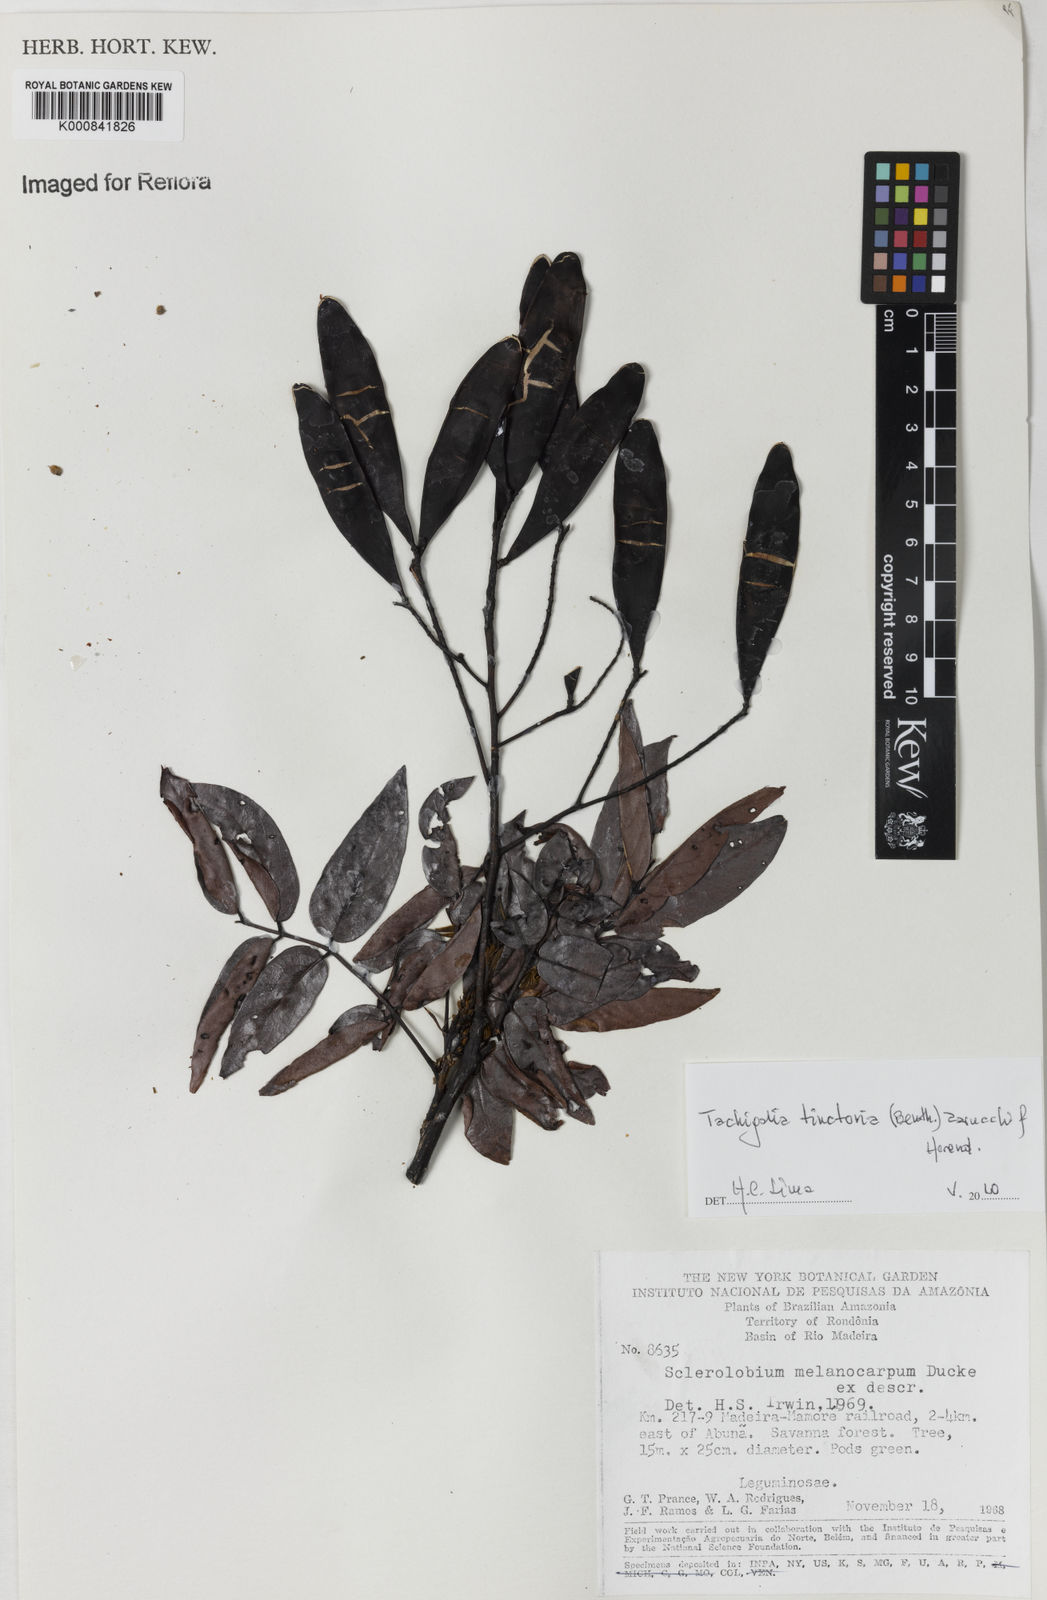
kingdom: Plantae
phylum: Tracheophyta
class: Magnoliopsida
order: Fabales
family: Fabaceae
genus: Tachigali
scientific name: Tachigali tinctoria
